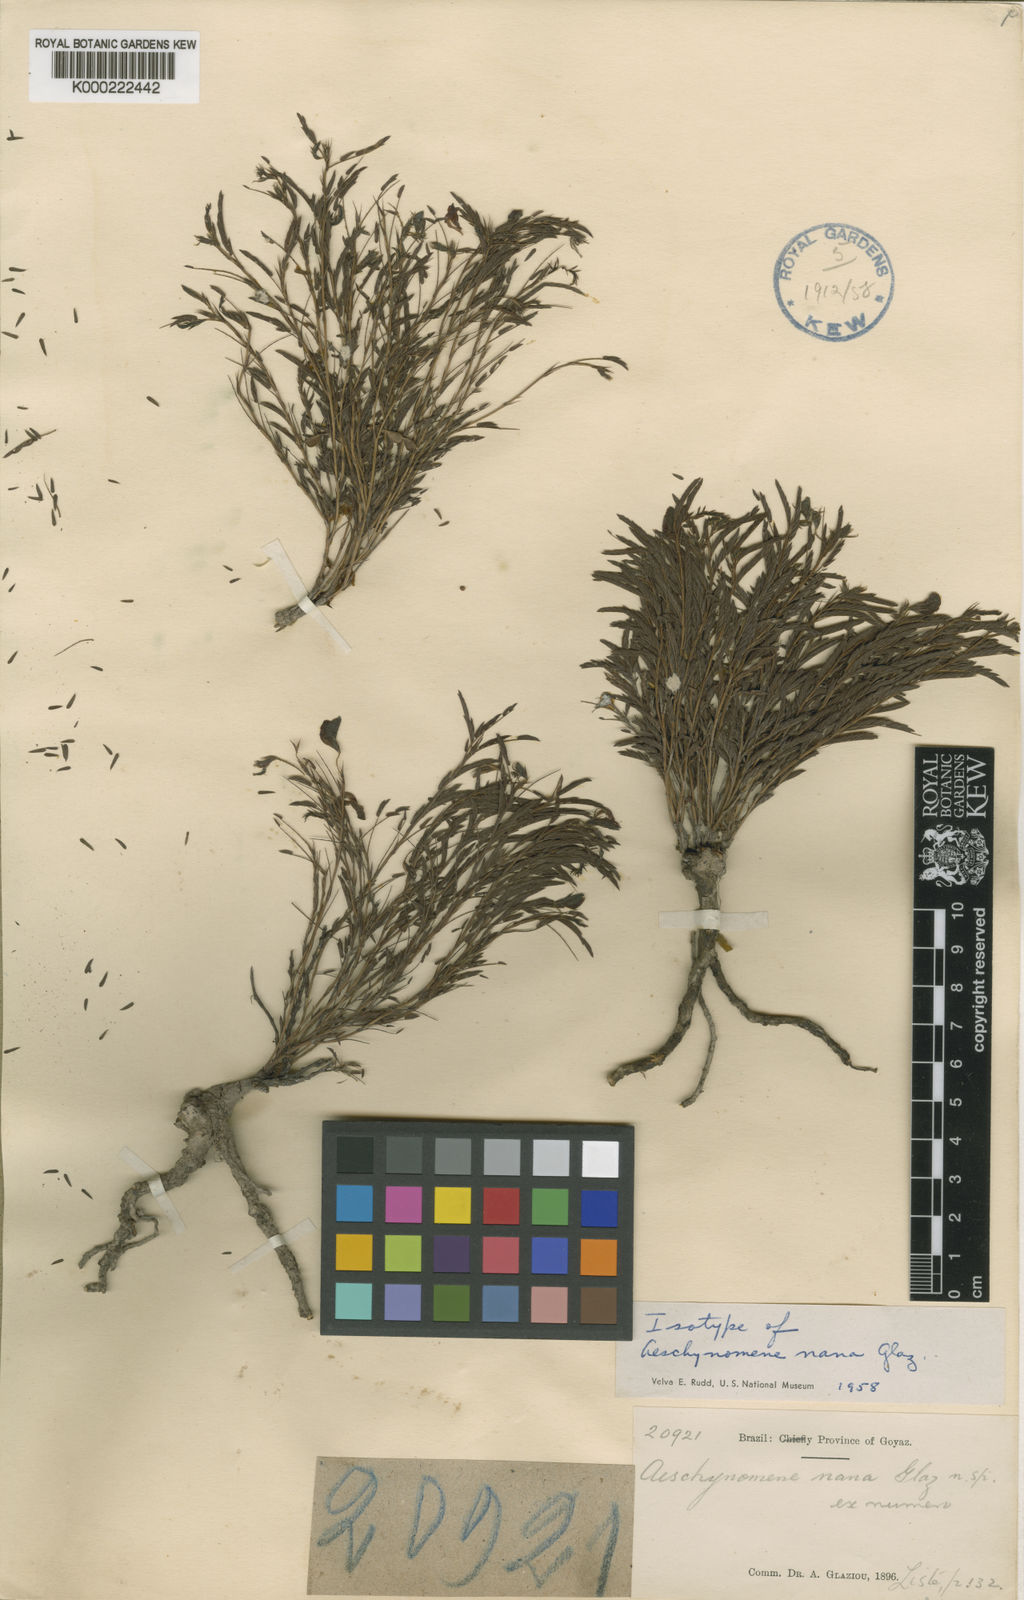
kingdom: Plantae
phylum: Tracheophyta
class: Magnoliopsida
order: Fabales
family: Fabaceae
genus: Aeschynomene
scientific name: Aeschynomene
